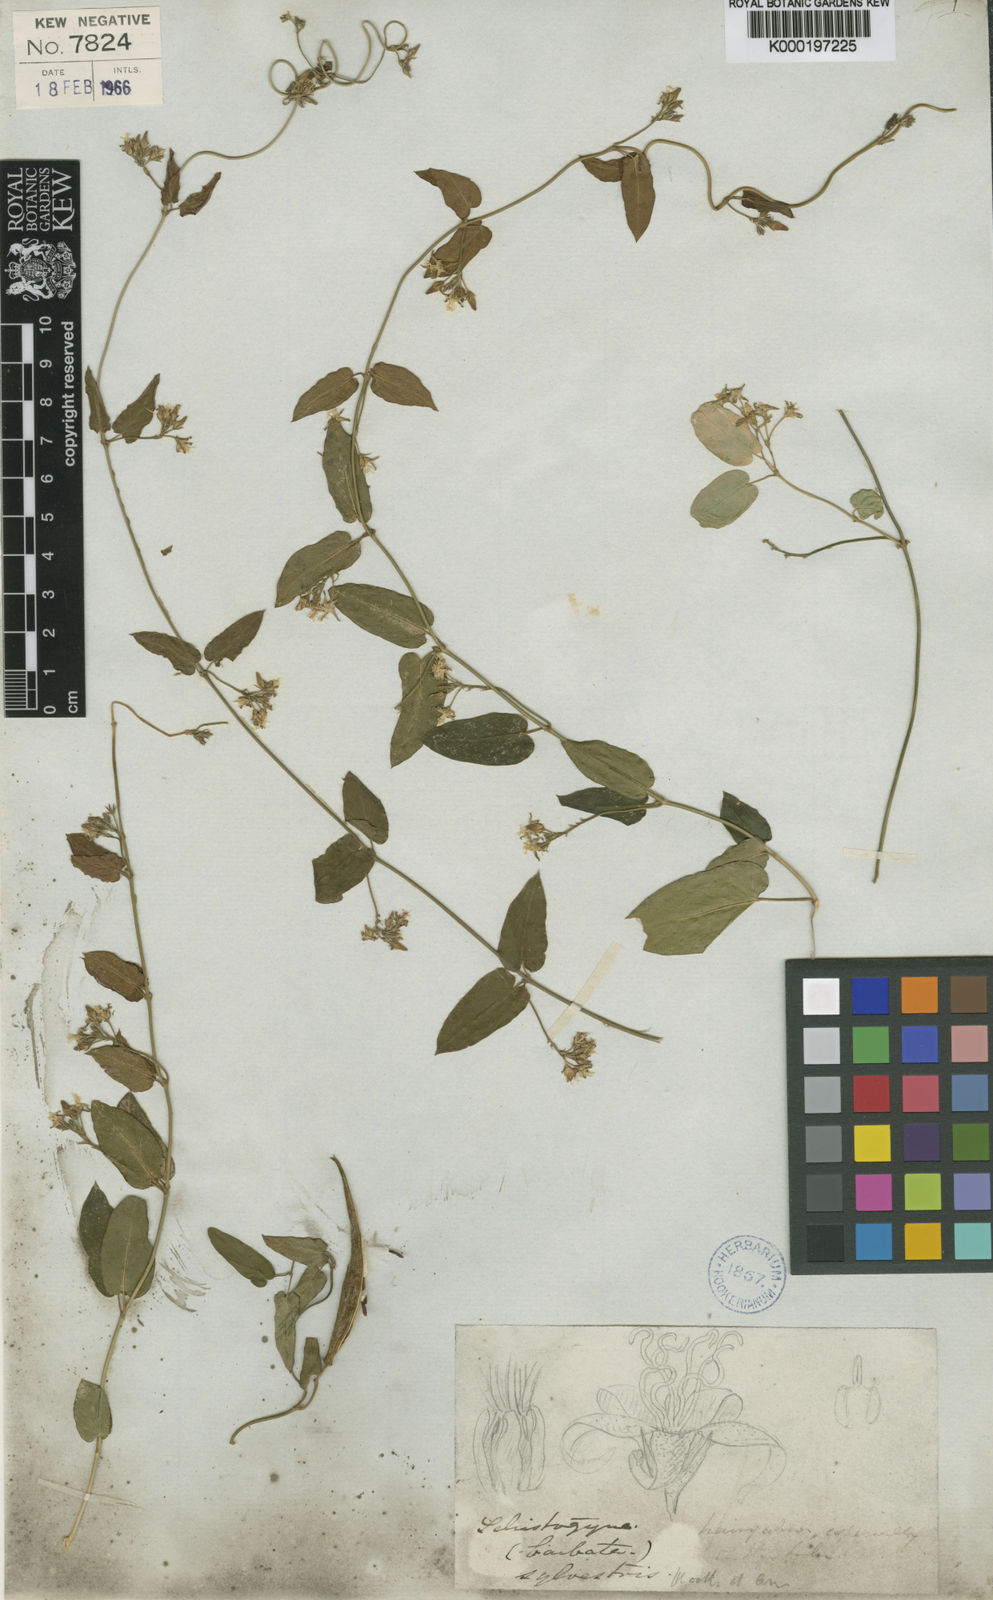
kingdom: Plantae
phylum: Tracheophyta
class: Magnoliopsida
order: Gentianales
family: Apocynaceae
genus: Oxypetalum
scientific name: Oxypetalum sylvestre
